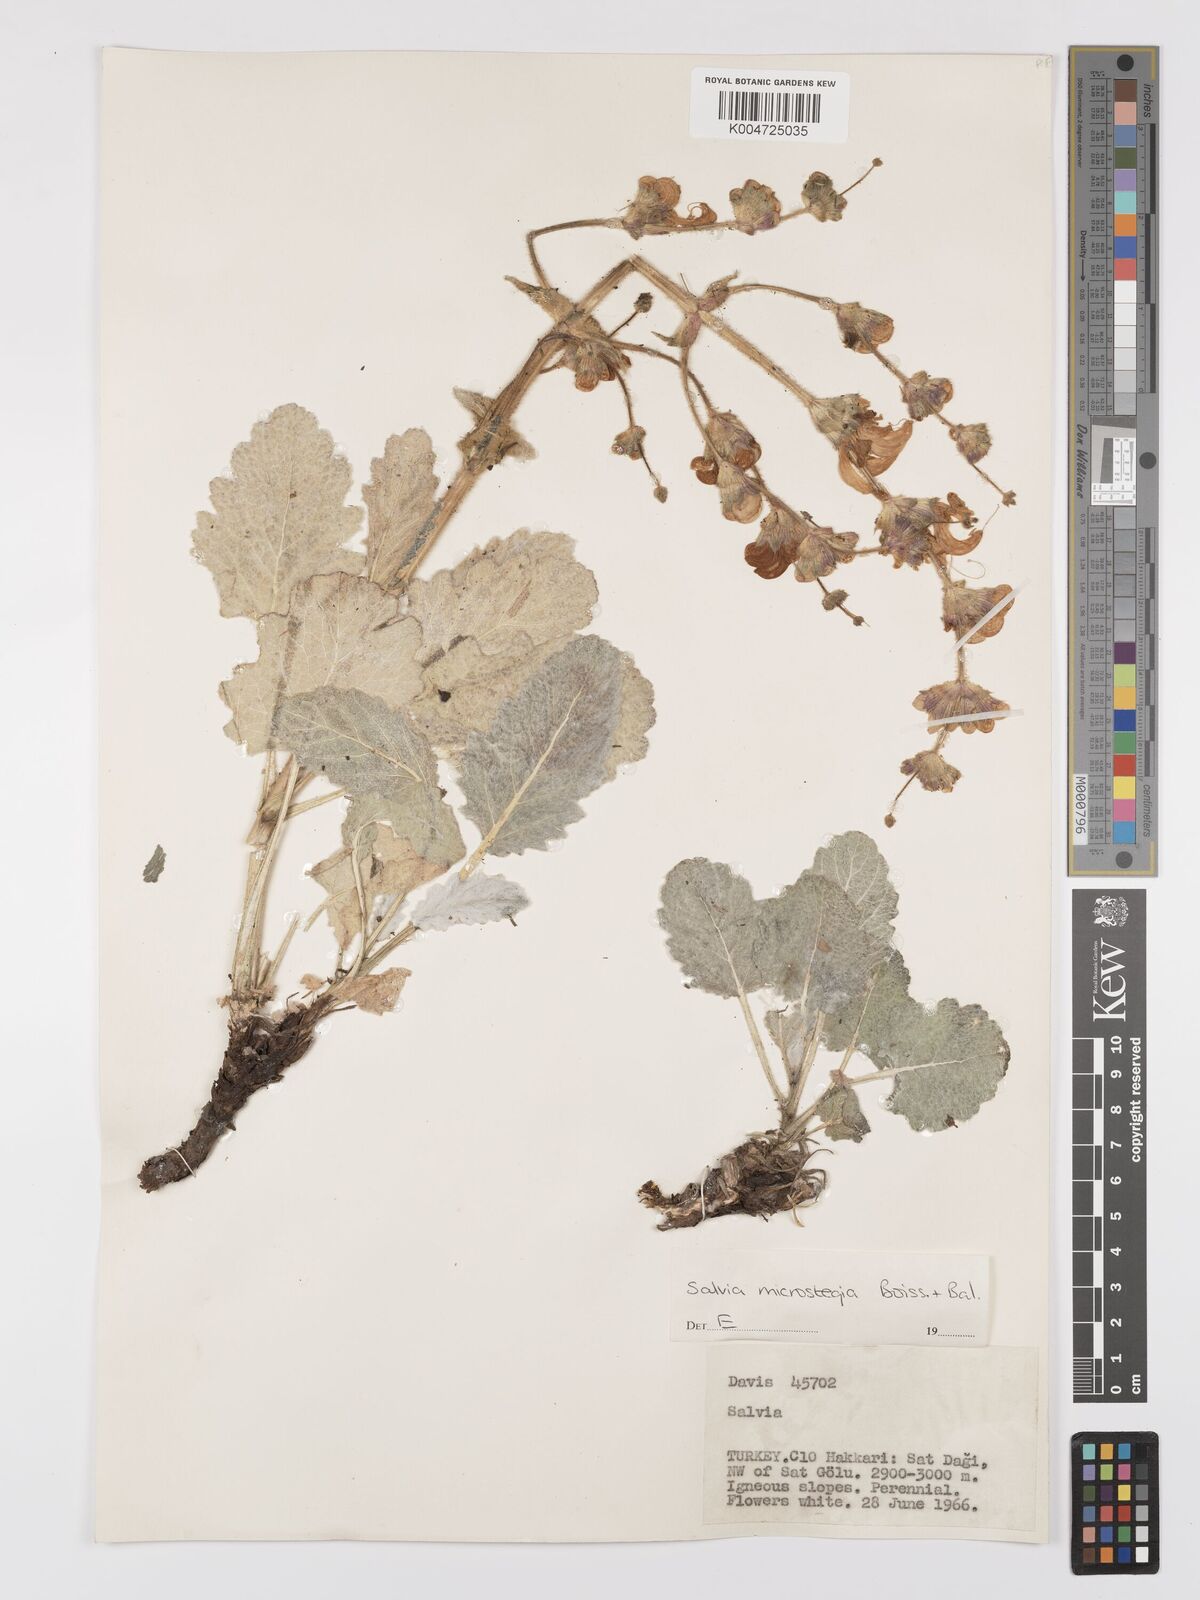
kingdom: Plantae
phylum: Tracheophyta
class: Magnoliopsida
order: Lamiales
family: Lamiaceae
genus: Salvia
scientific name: Salvia microstegia
